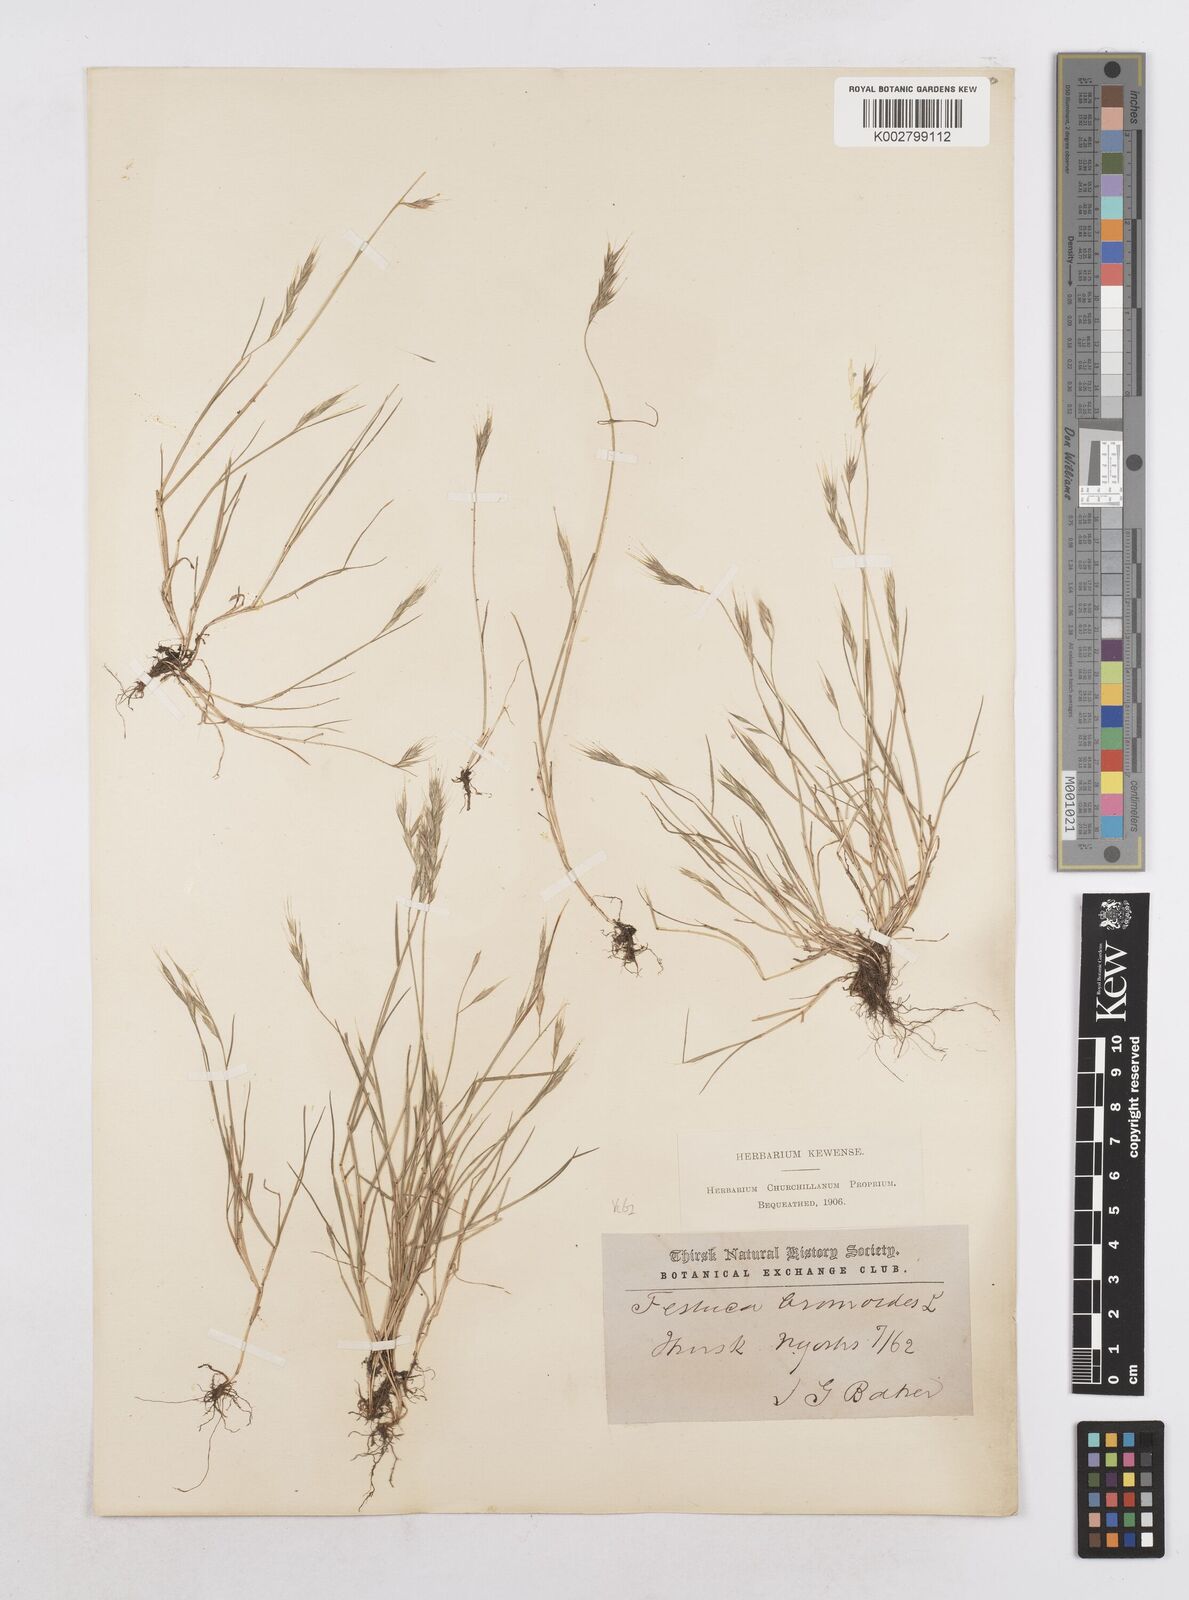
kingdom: Plantae
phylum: Tracheophyta
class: Liliopsida
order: Poales
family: Poaceae
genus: Festuca
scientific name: Festuca bromoides
